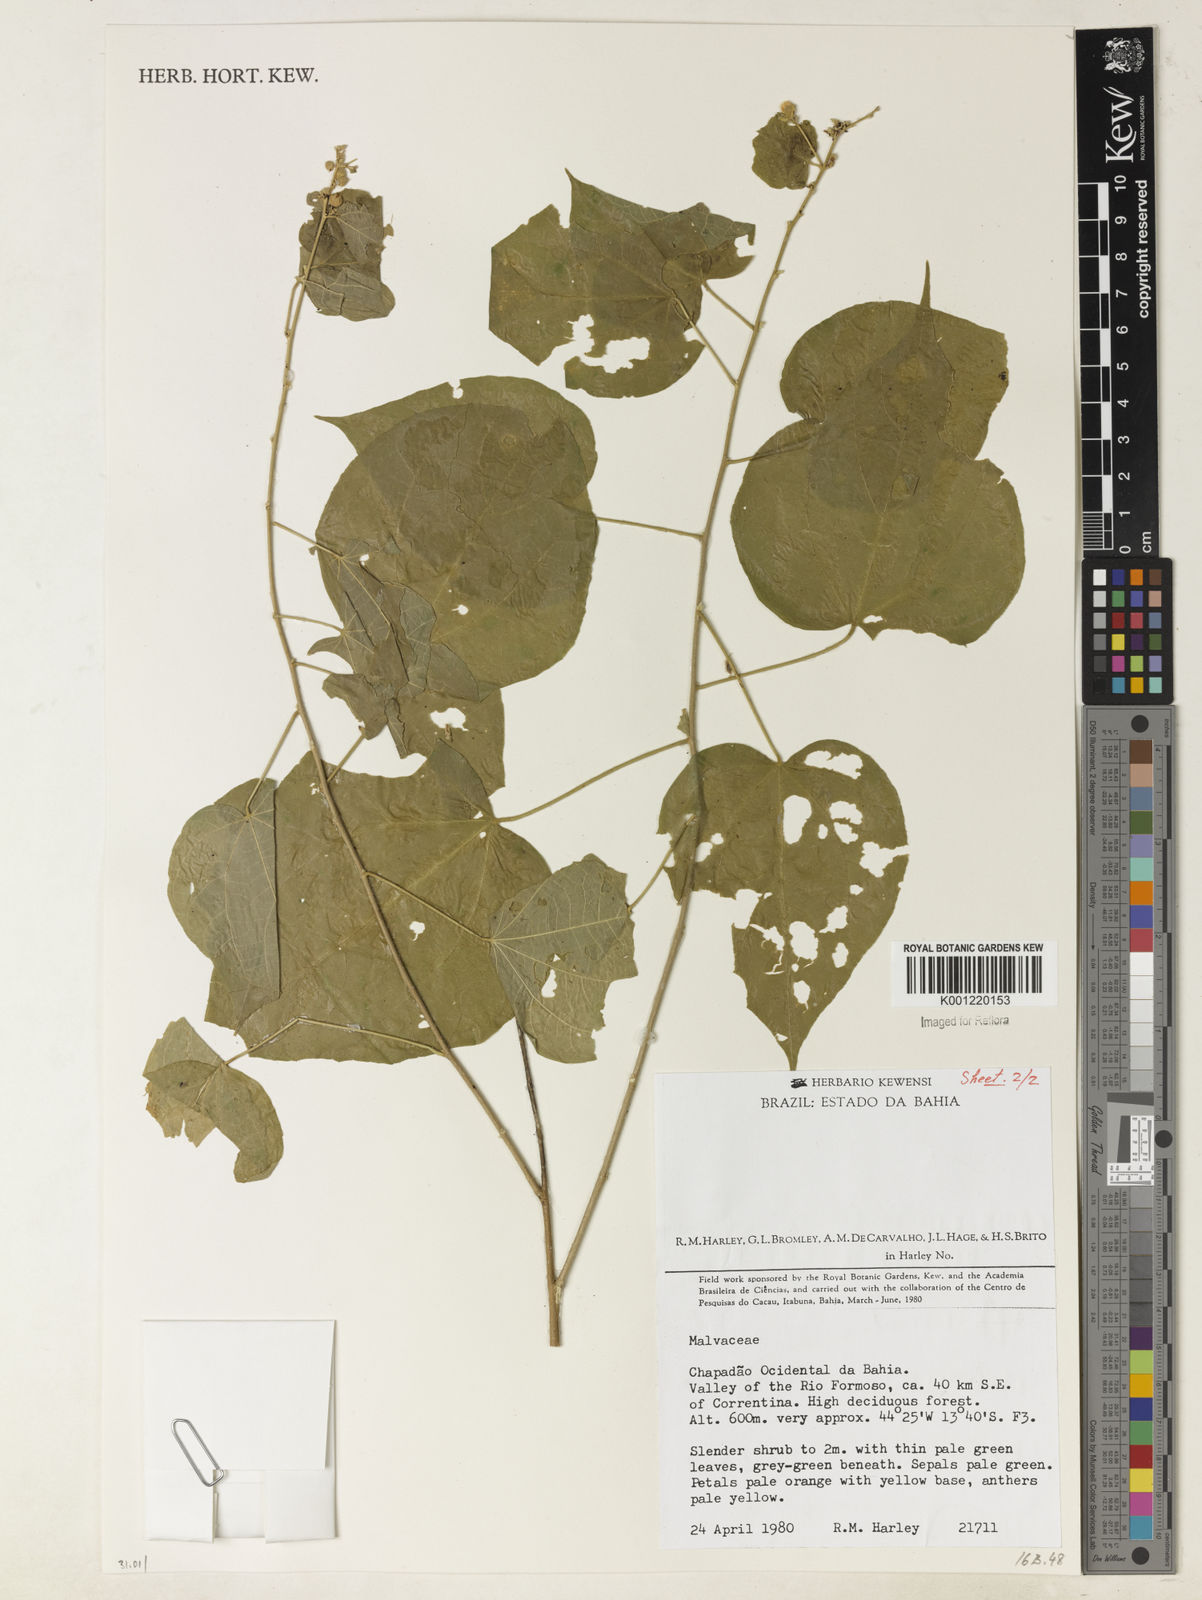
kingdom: Plantae
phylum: Tracheophyta
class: Magnoliopsida
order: Malvales
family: Malvaceae
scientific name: Malvaceae
